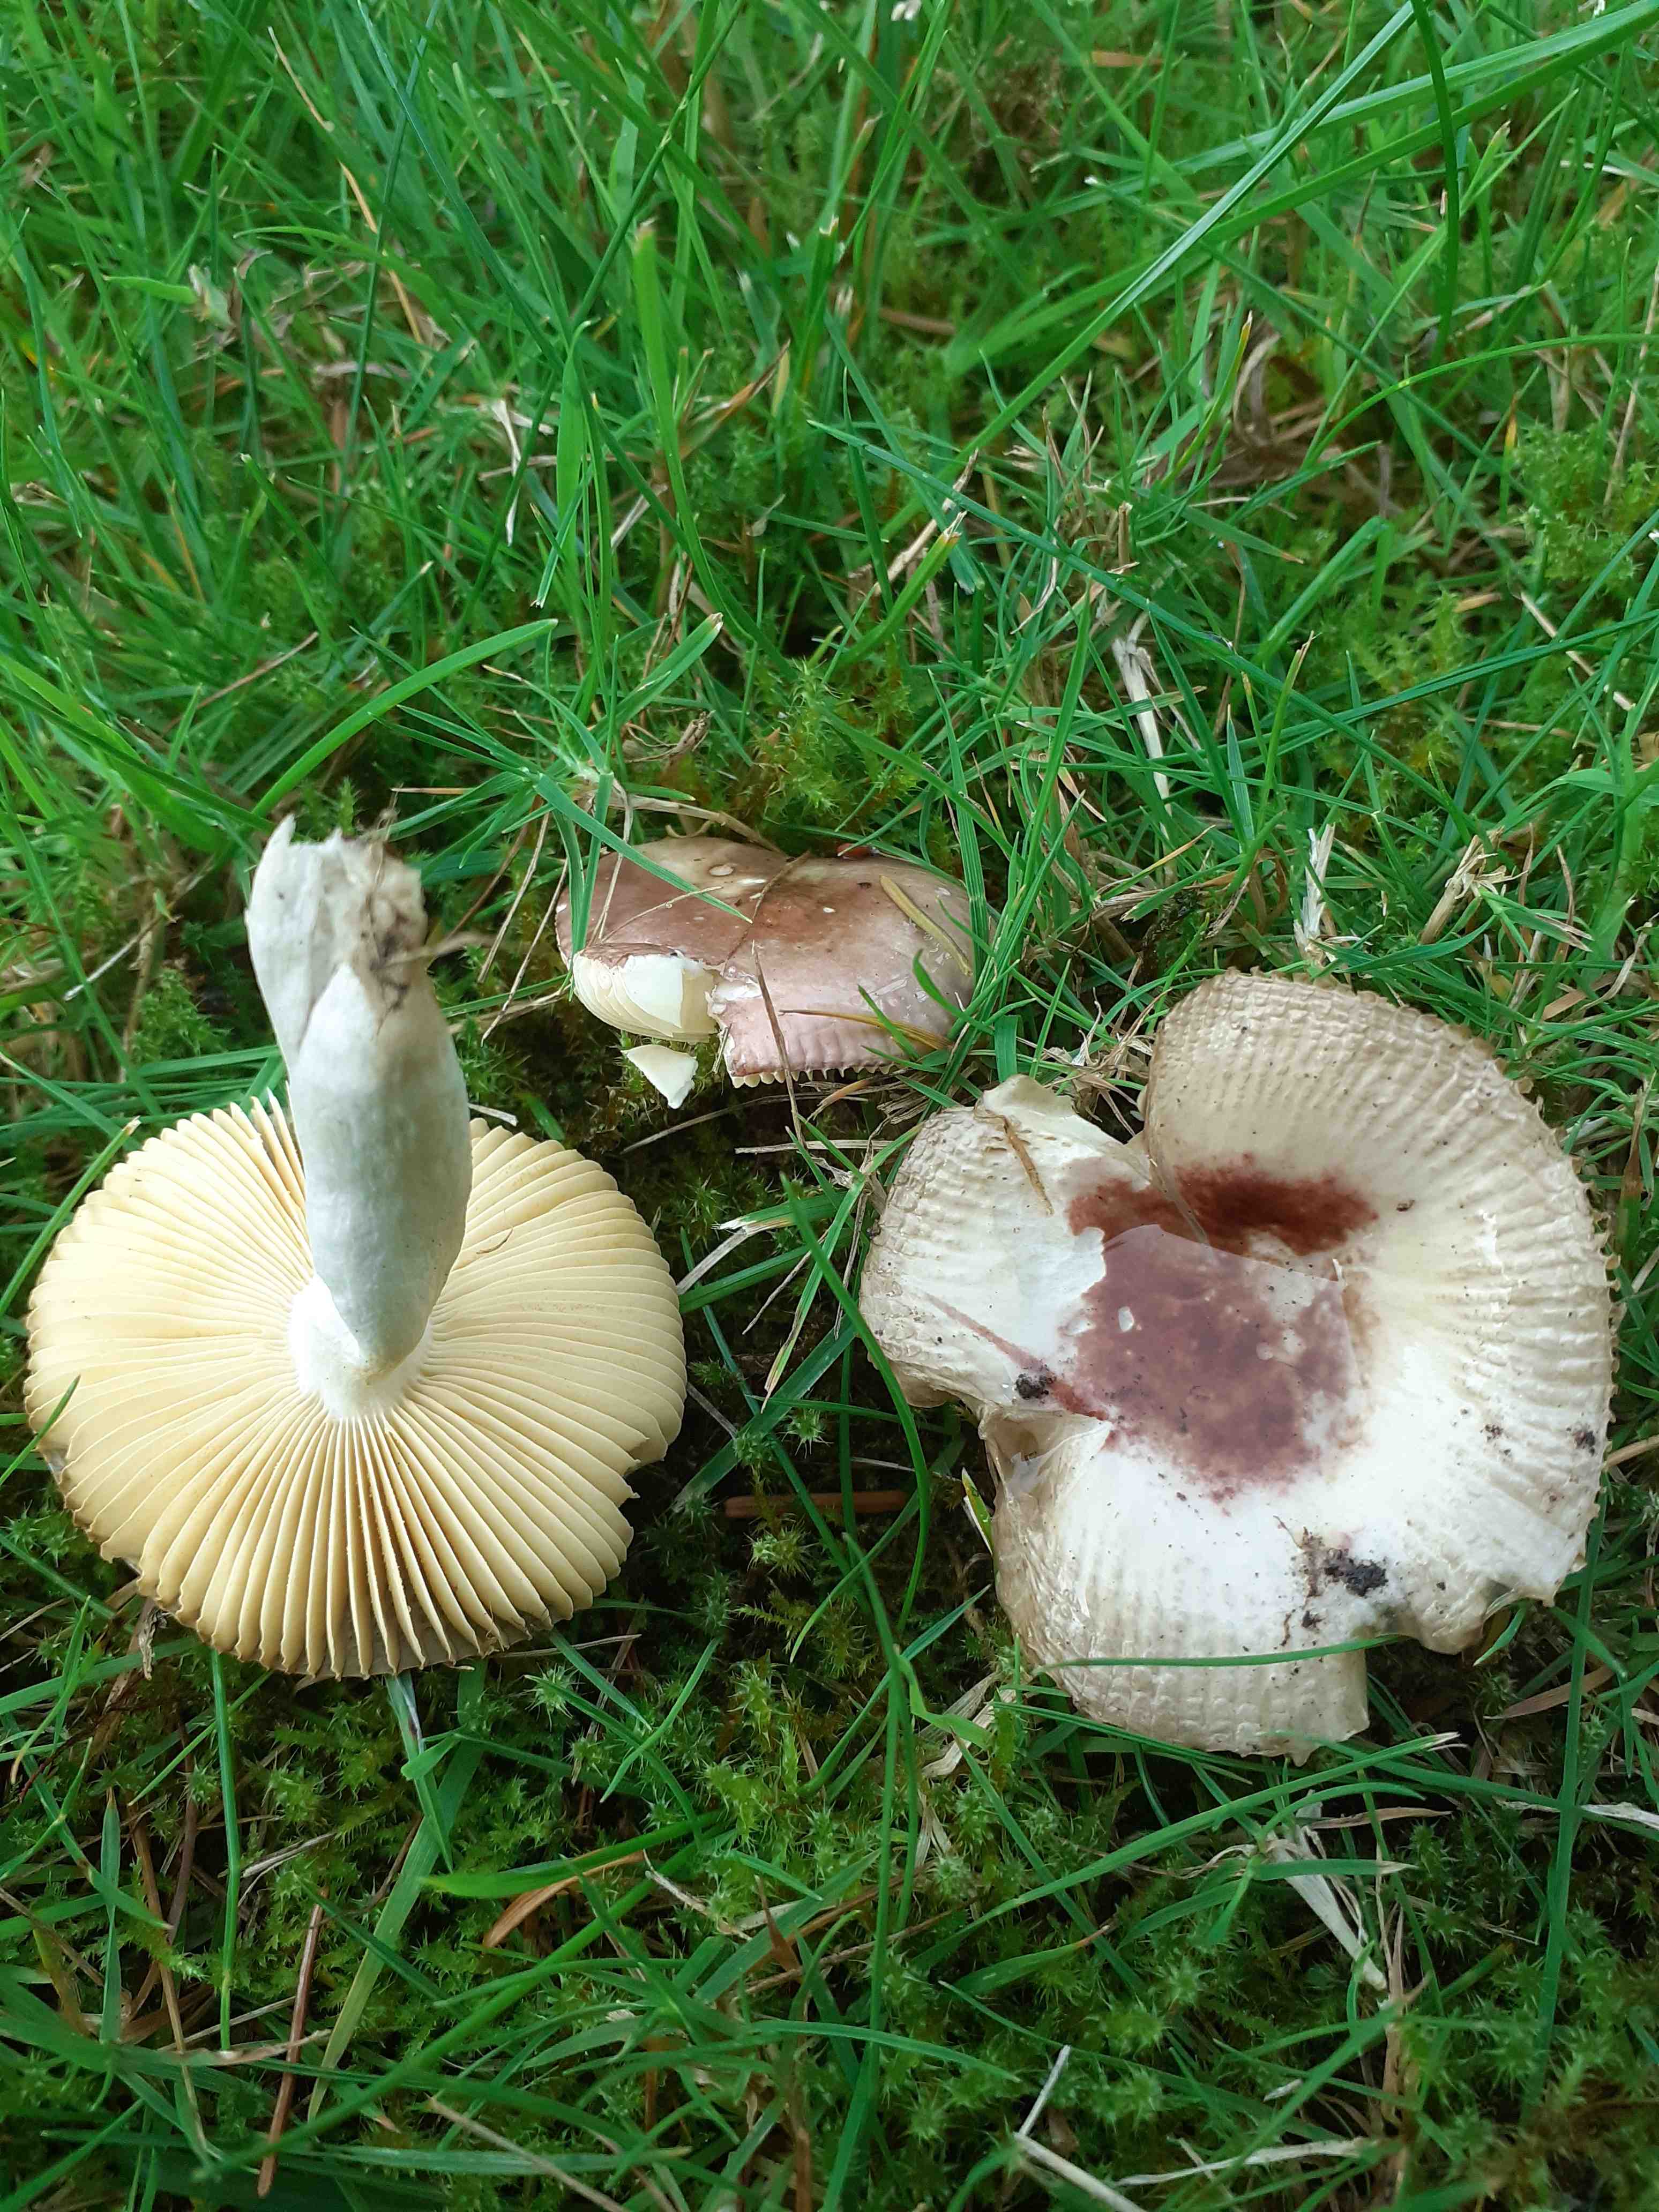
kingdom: Fungi
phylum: Basidiomycota
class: Agaricomycetes
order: Russulales
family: Russulaceae
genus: Russula
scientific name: Russula nauseosa
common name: spinkel skørhat
